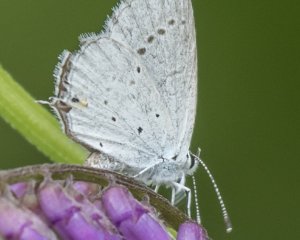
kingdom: Animalia
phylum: Arthropoda
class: Insecta
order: Lepidoptera
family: Lycaenidae
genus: Elkalyce
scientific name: Elkalyce amyntula
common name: Western Tailed-Blue
